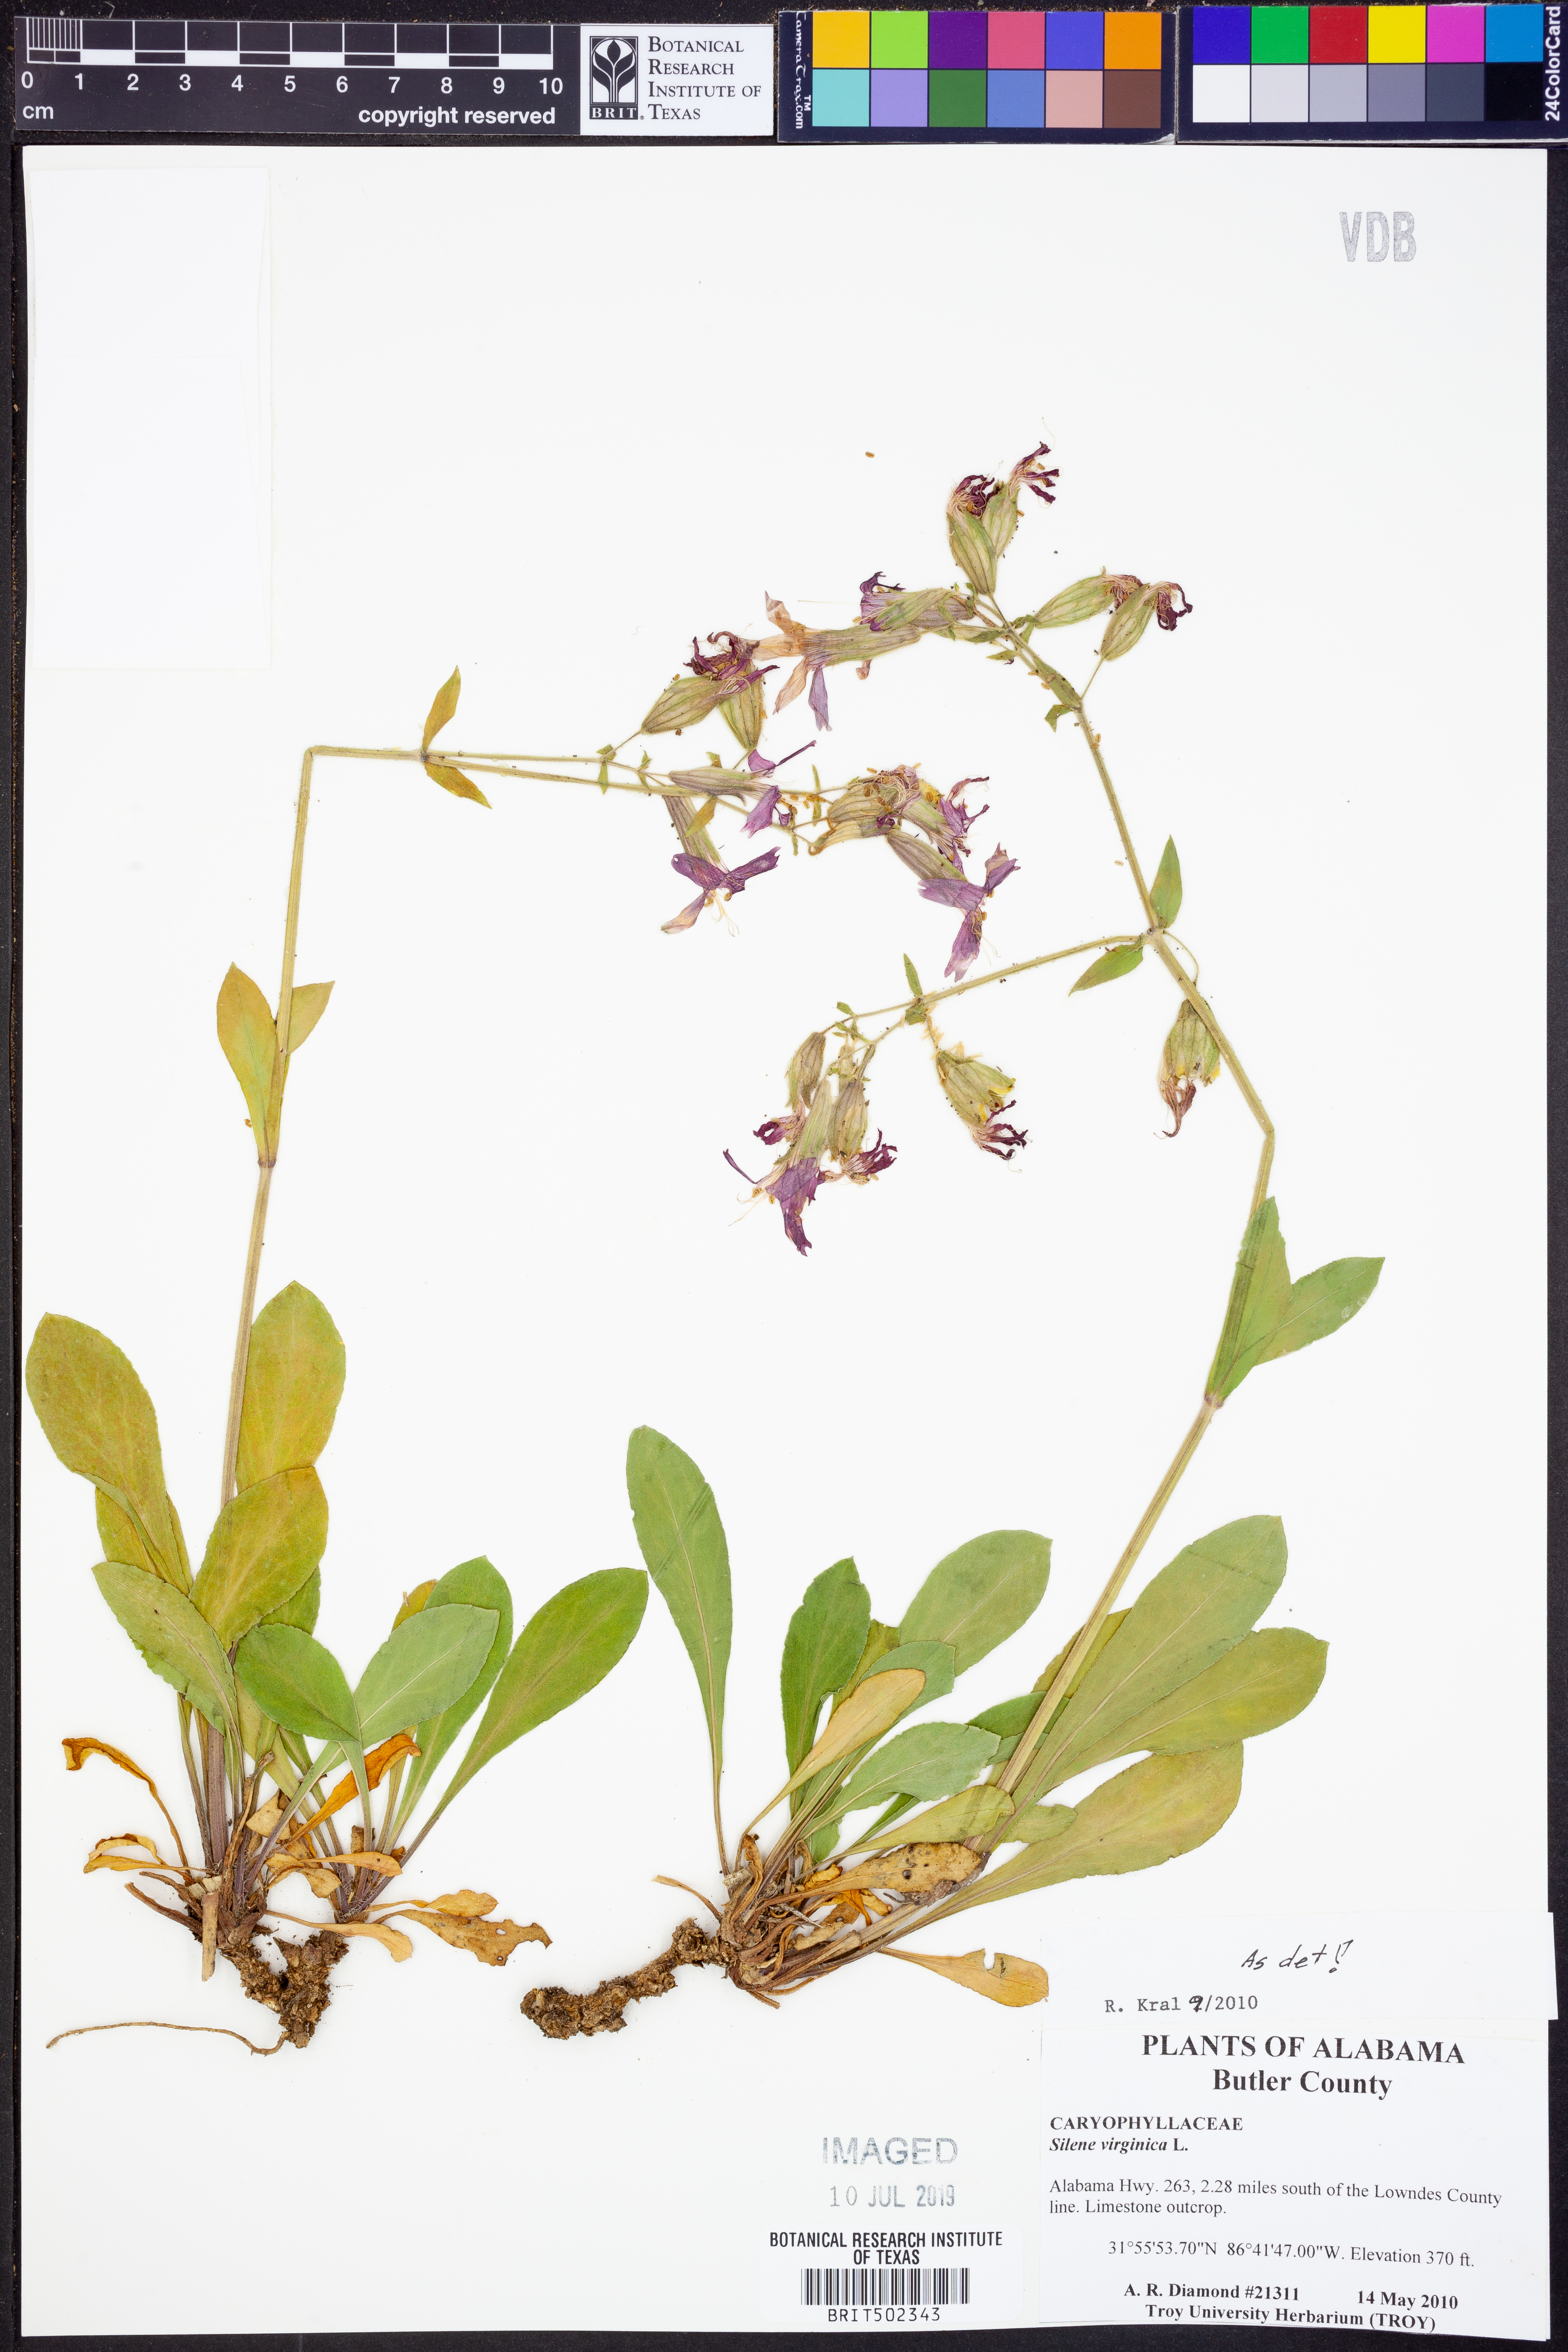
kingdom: Plantae
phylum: Tracheophyta
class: Magnoliopsida
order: Caryophyllales
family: Caryophyllaceae
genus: Silene
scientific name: Silene virginica
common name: Fire-pink
